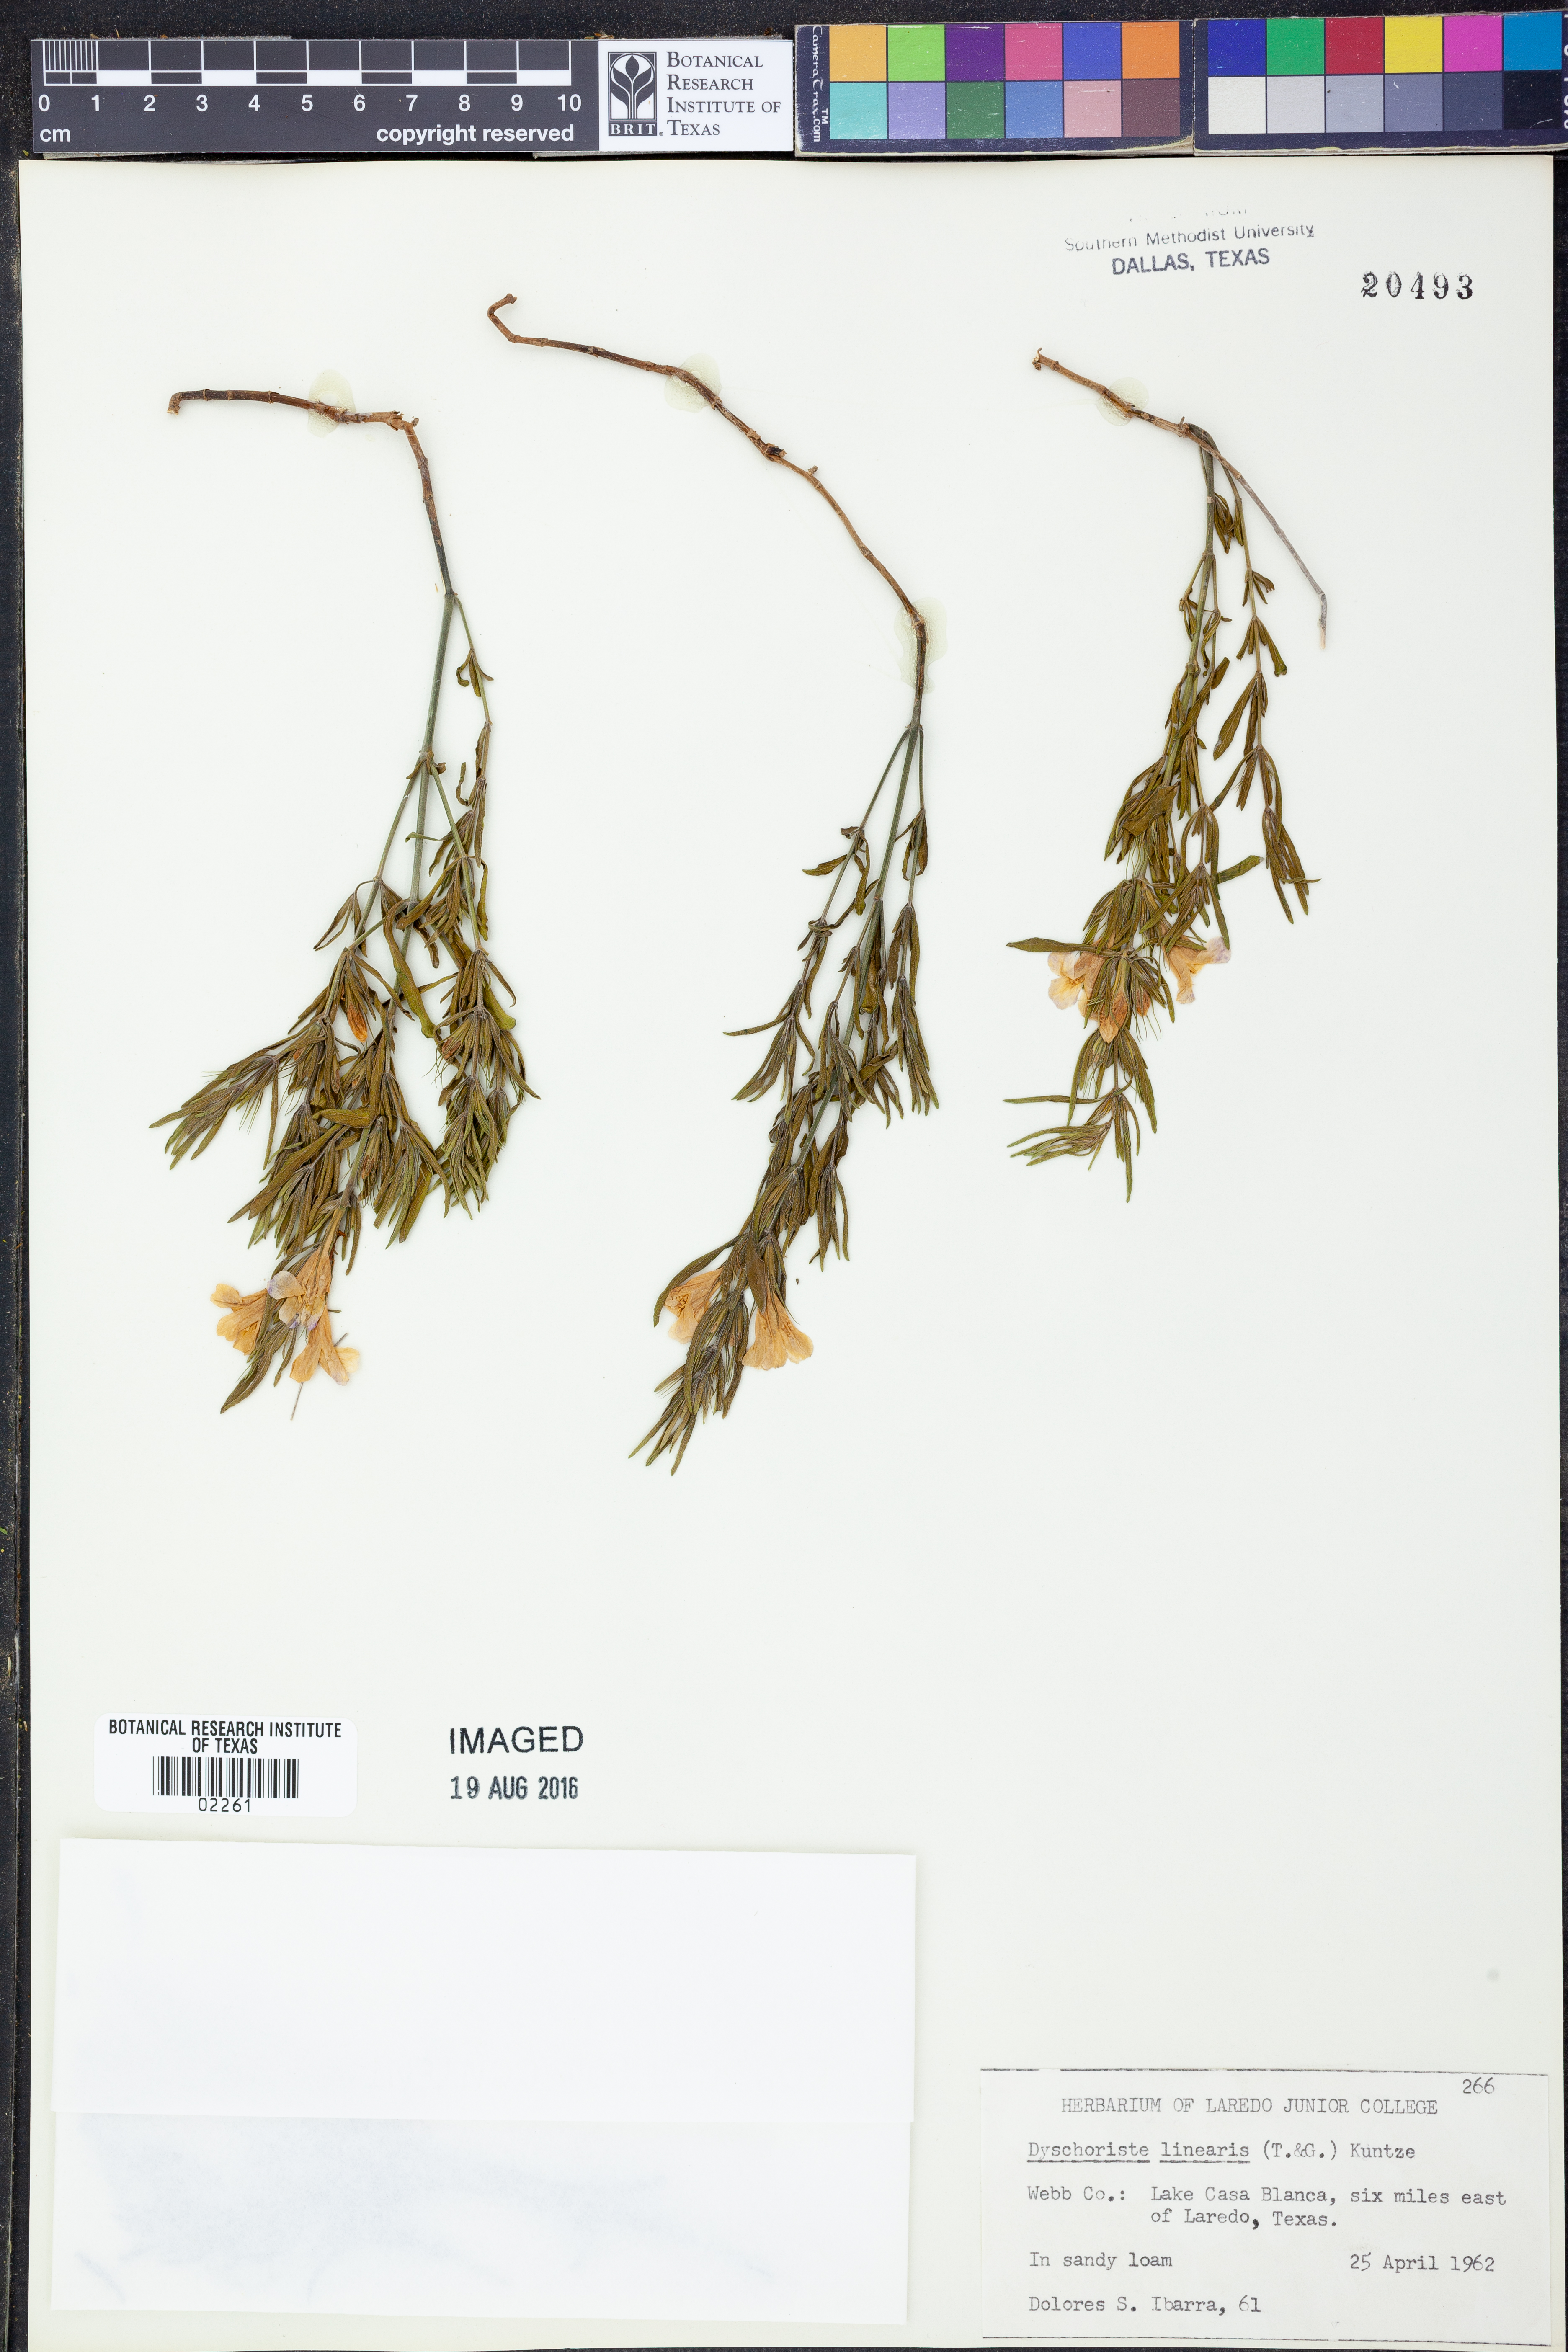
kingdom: Plantae
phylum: Tracheophyta
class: Magnoliopsida
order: Lamiales
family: Acanthaceae
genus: Dyschoriste
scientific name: Dyschoriste linearis
